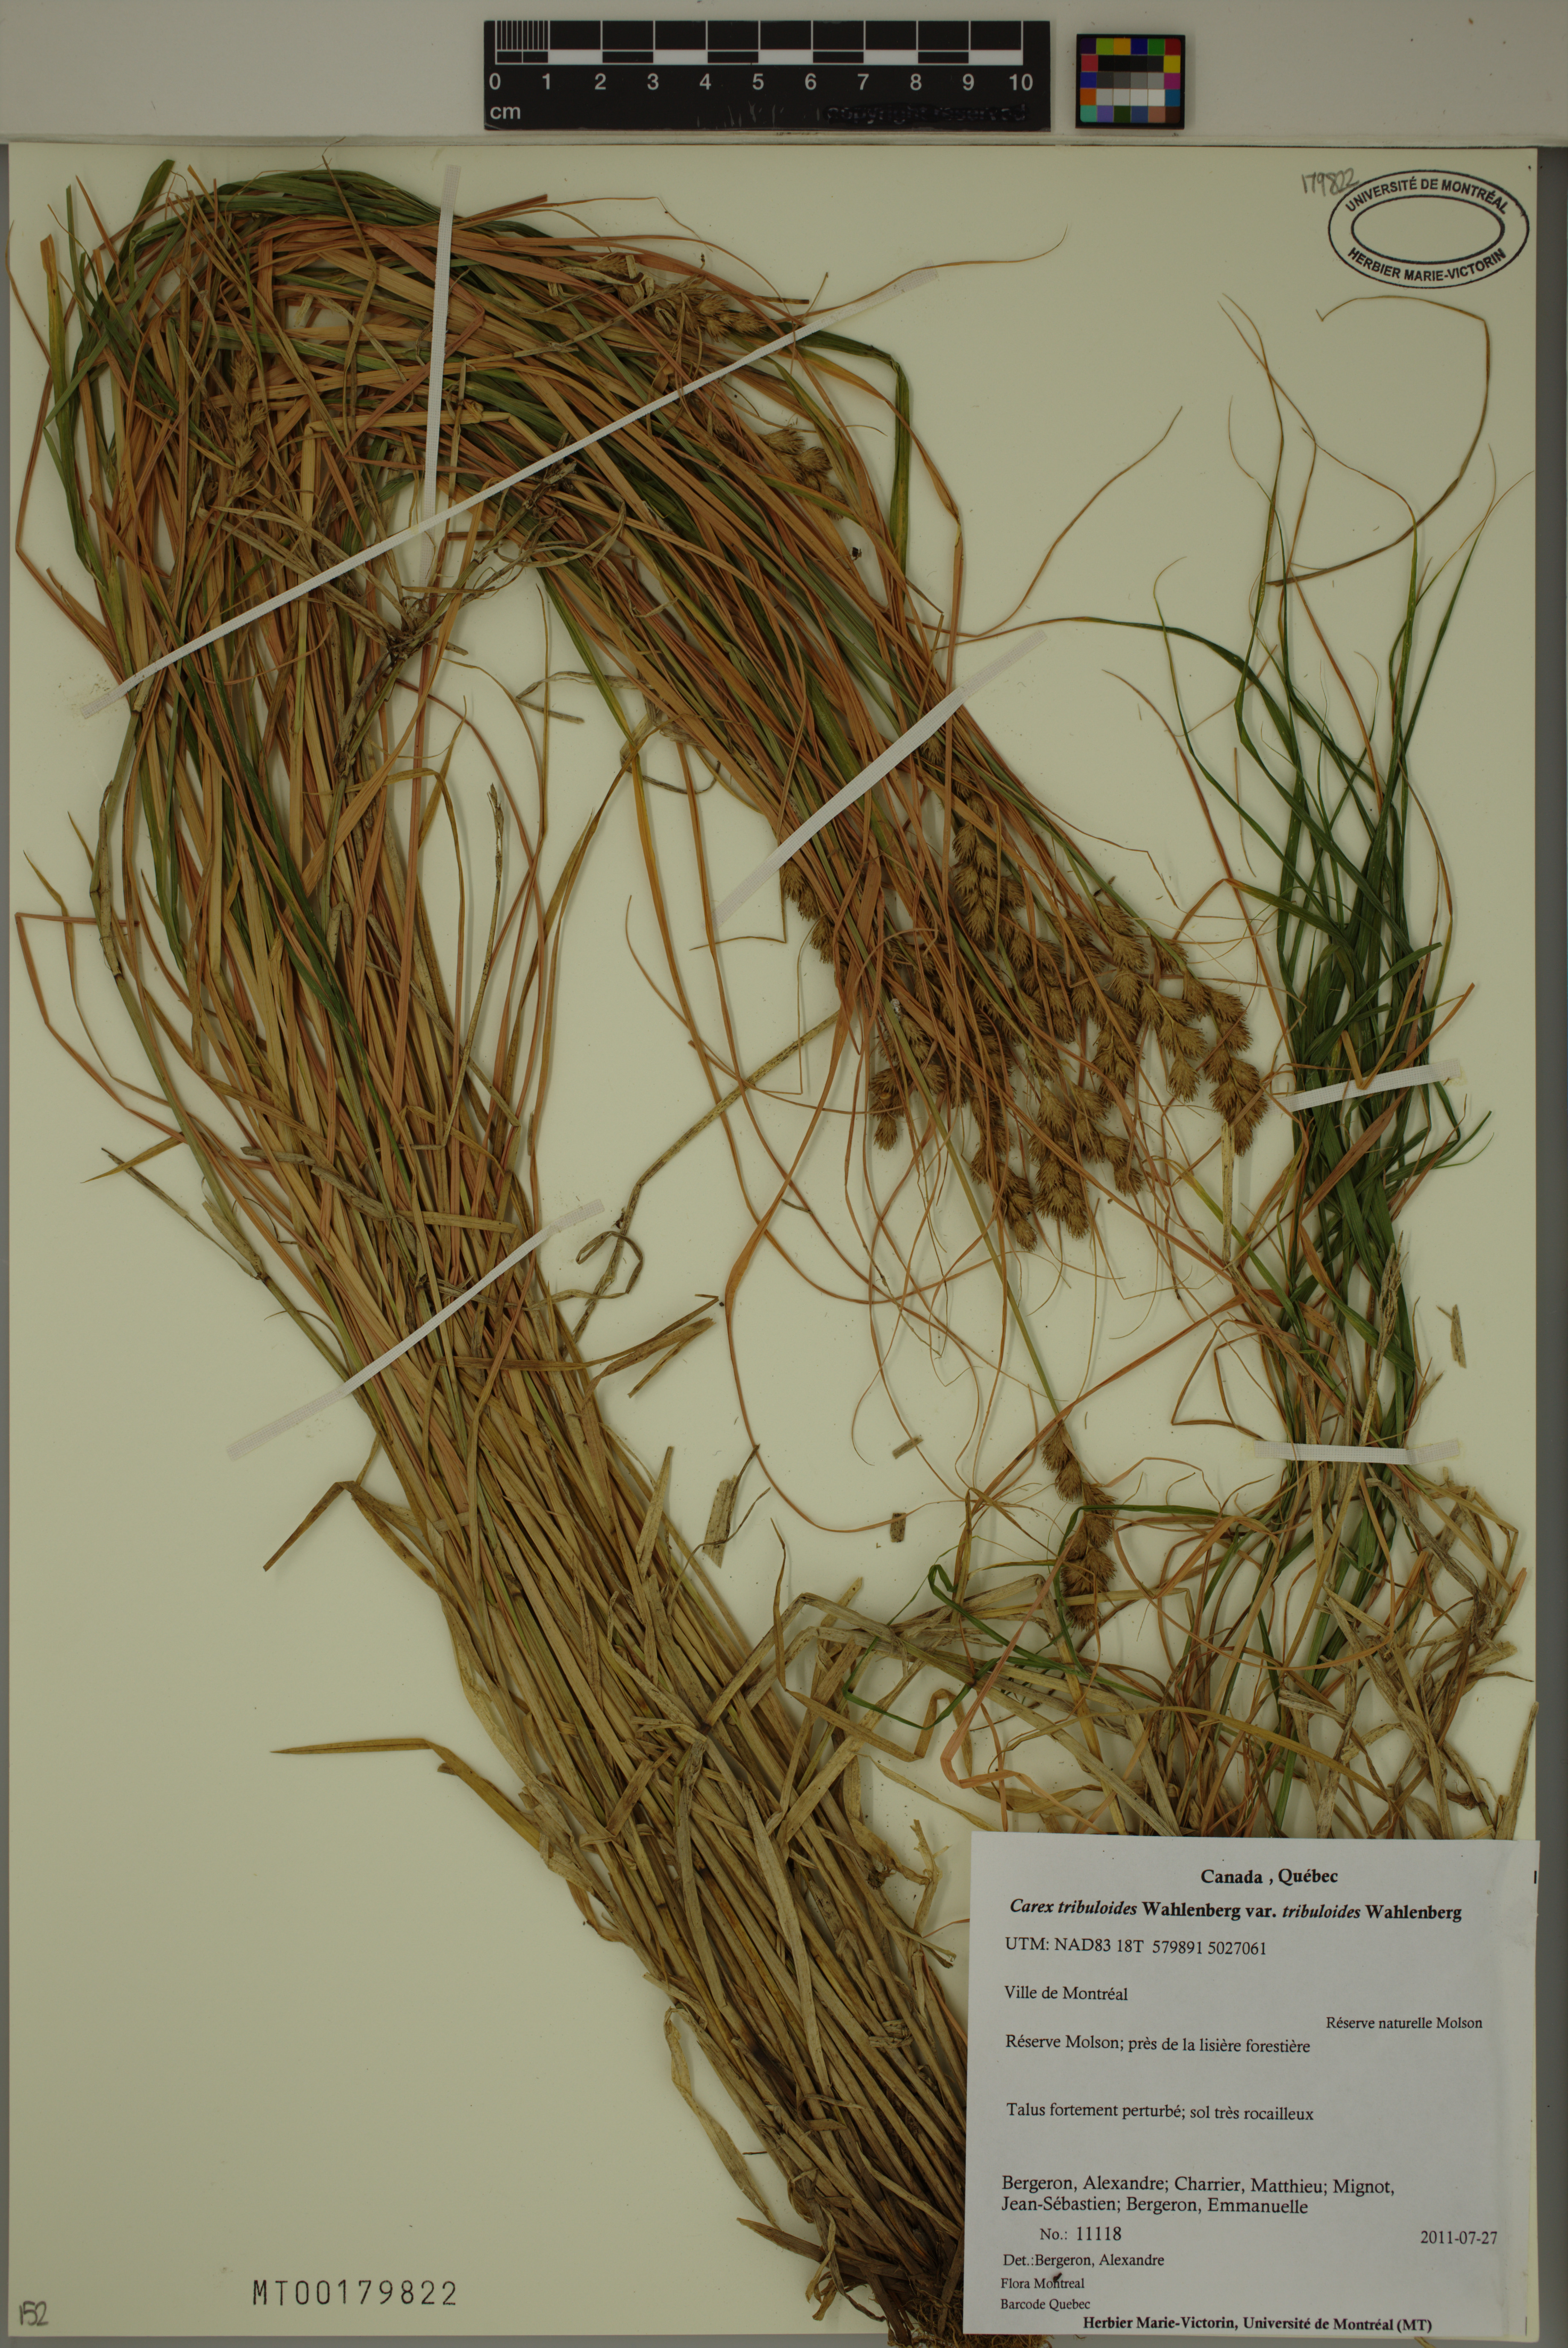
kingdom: Plantae
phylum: Tracheophyta
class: Liliopsida
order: Poales
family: Cyperaceae
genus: Carex
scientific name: Carex tribuloides
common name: Blunt broom sedge
